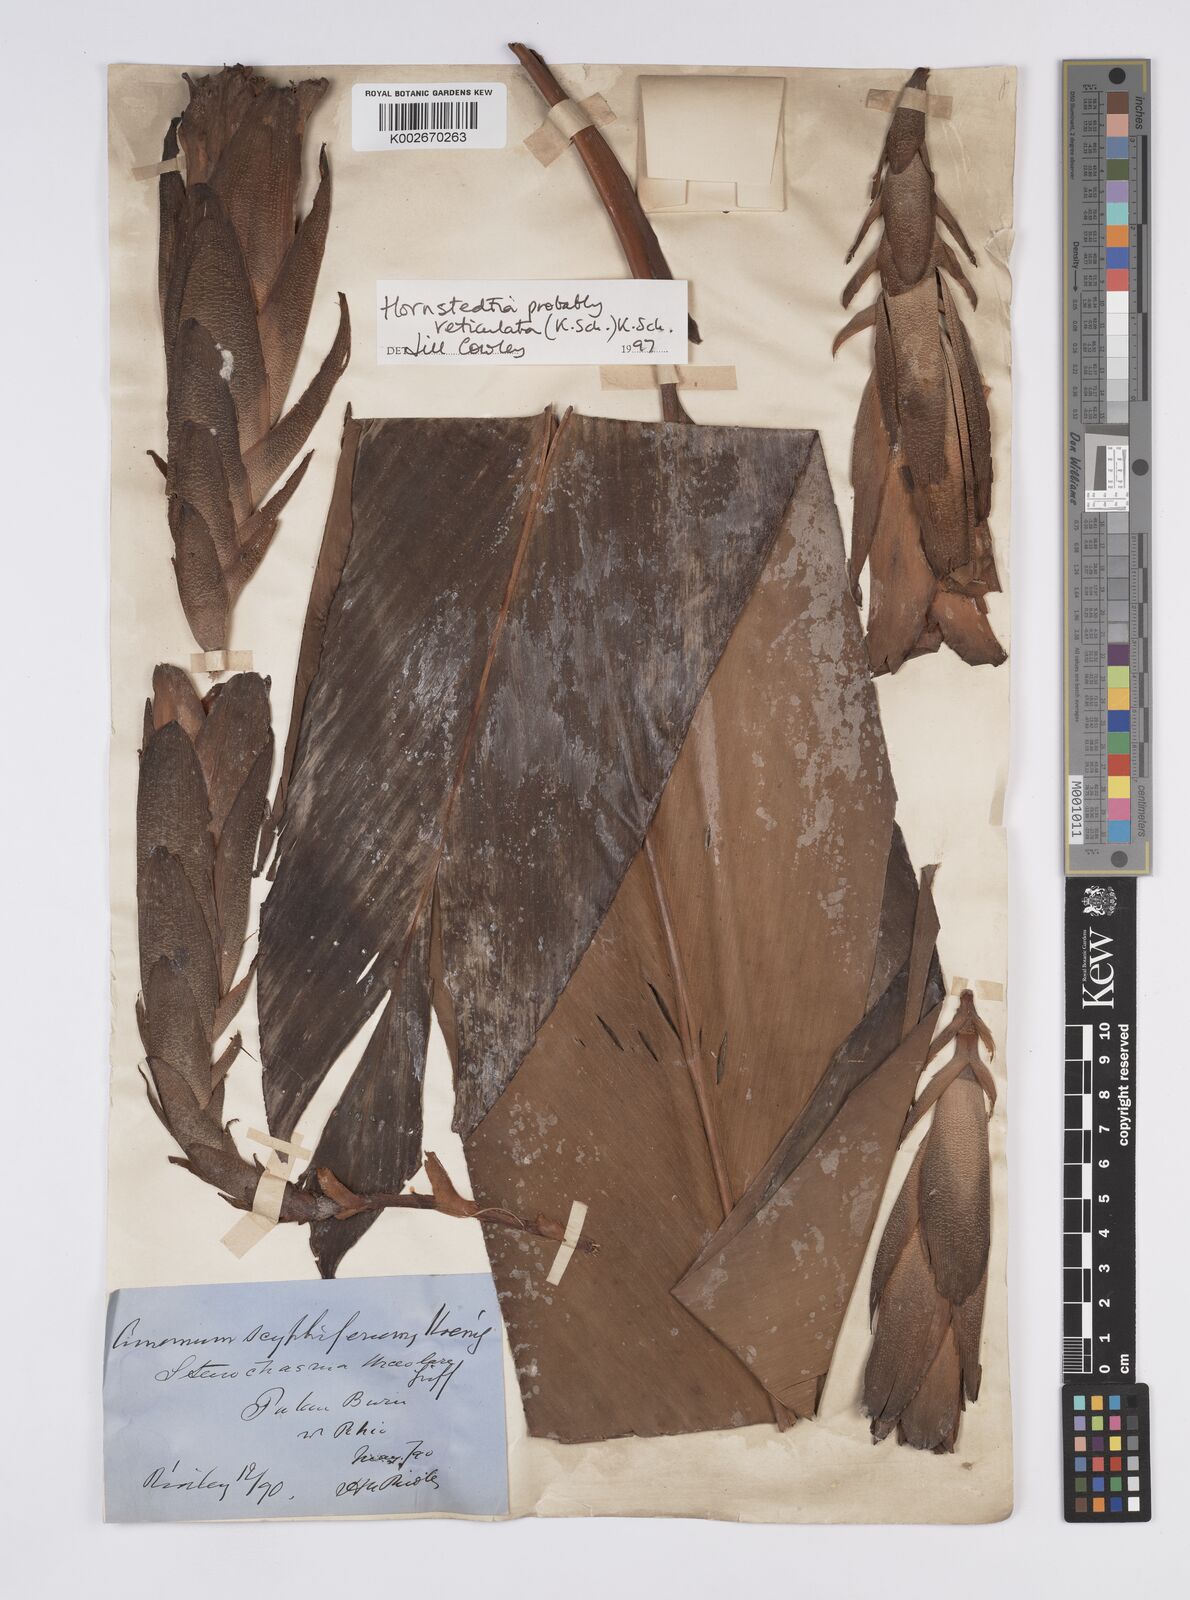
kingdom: Plantae
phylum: Tracheophyta
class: Liliopsida
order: Zingiberales
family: Zingiberaceae
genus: Hornstedtia
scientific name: Hornstedtia reticulata
